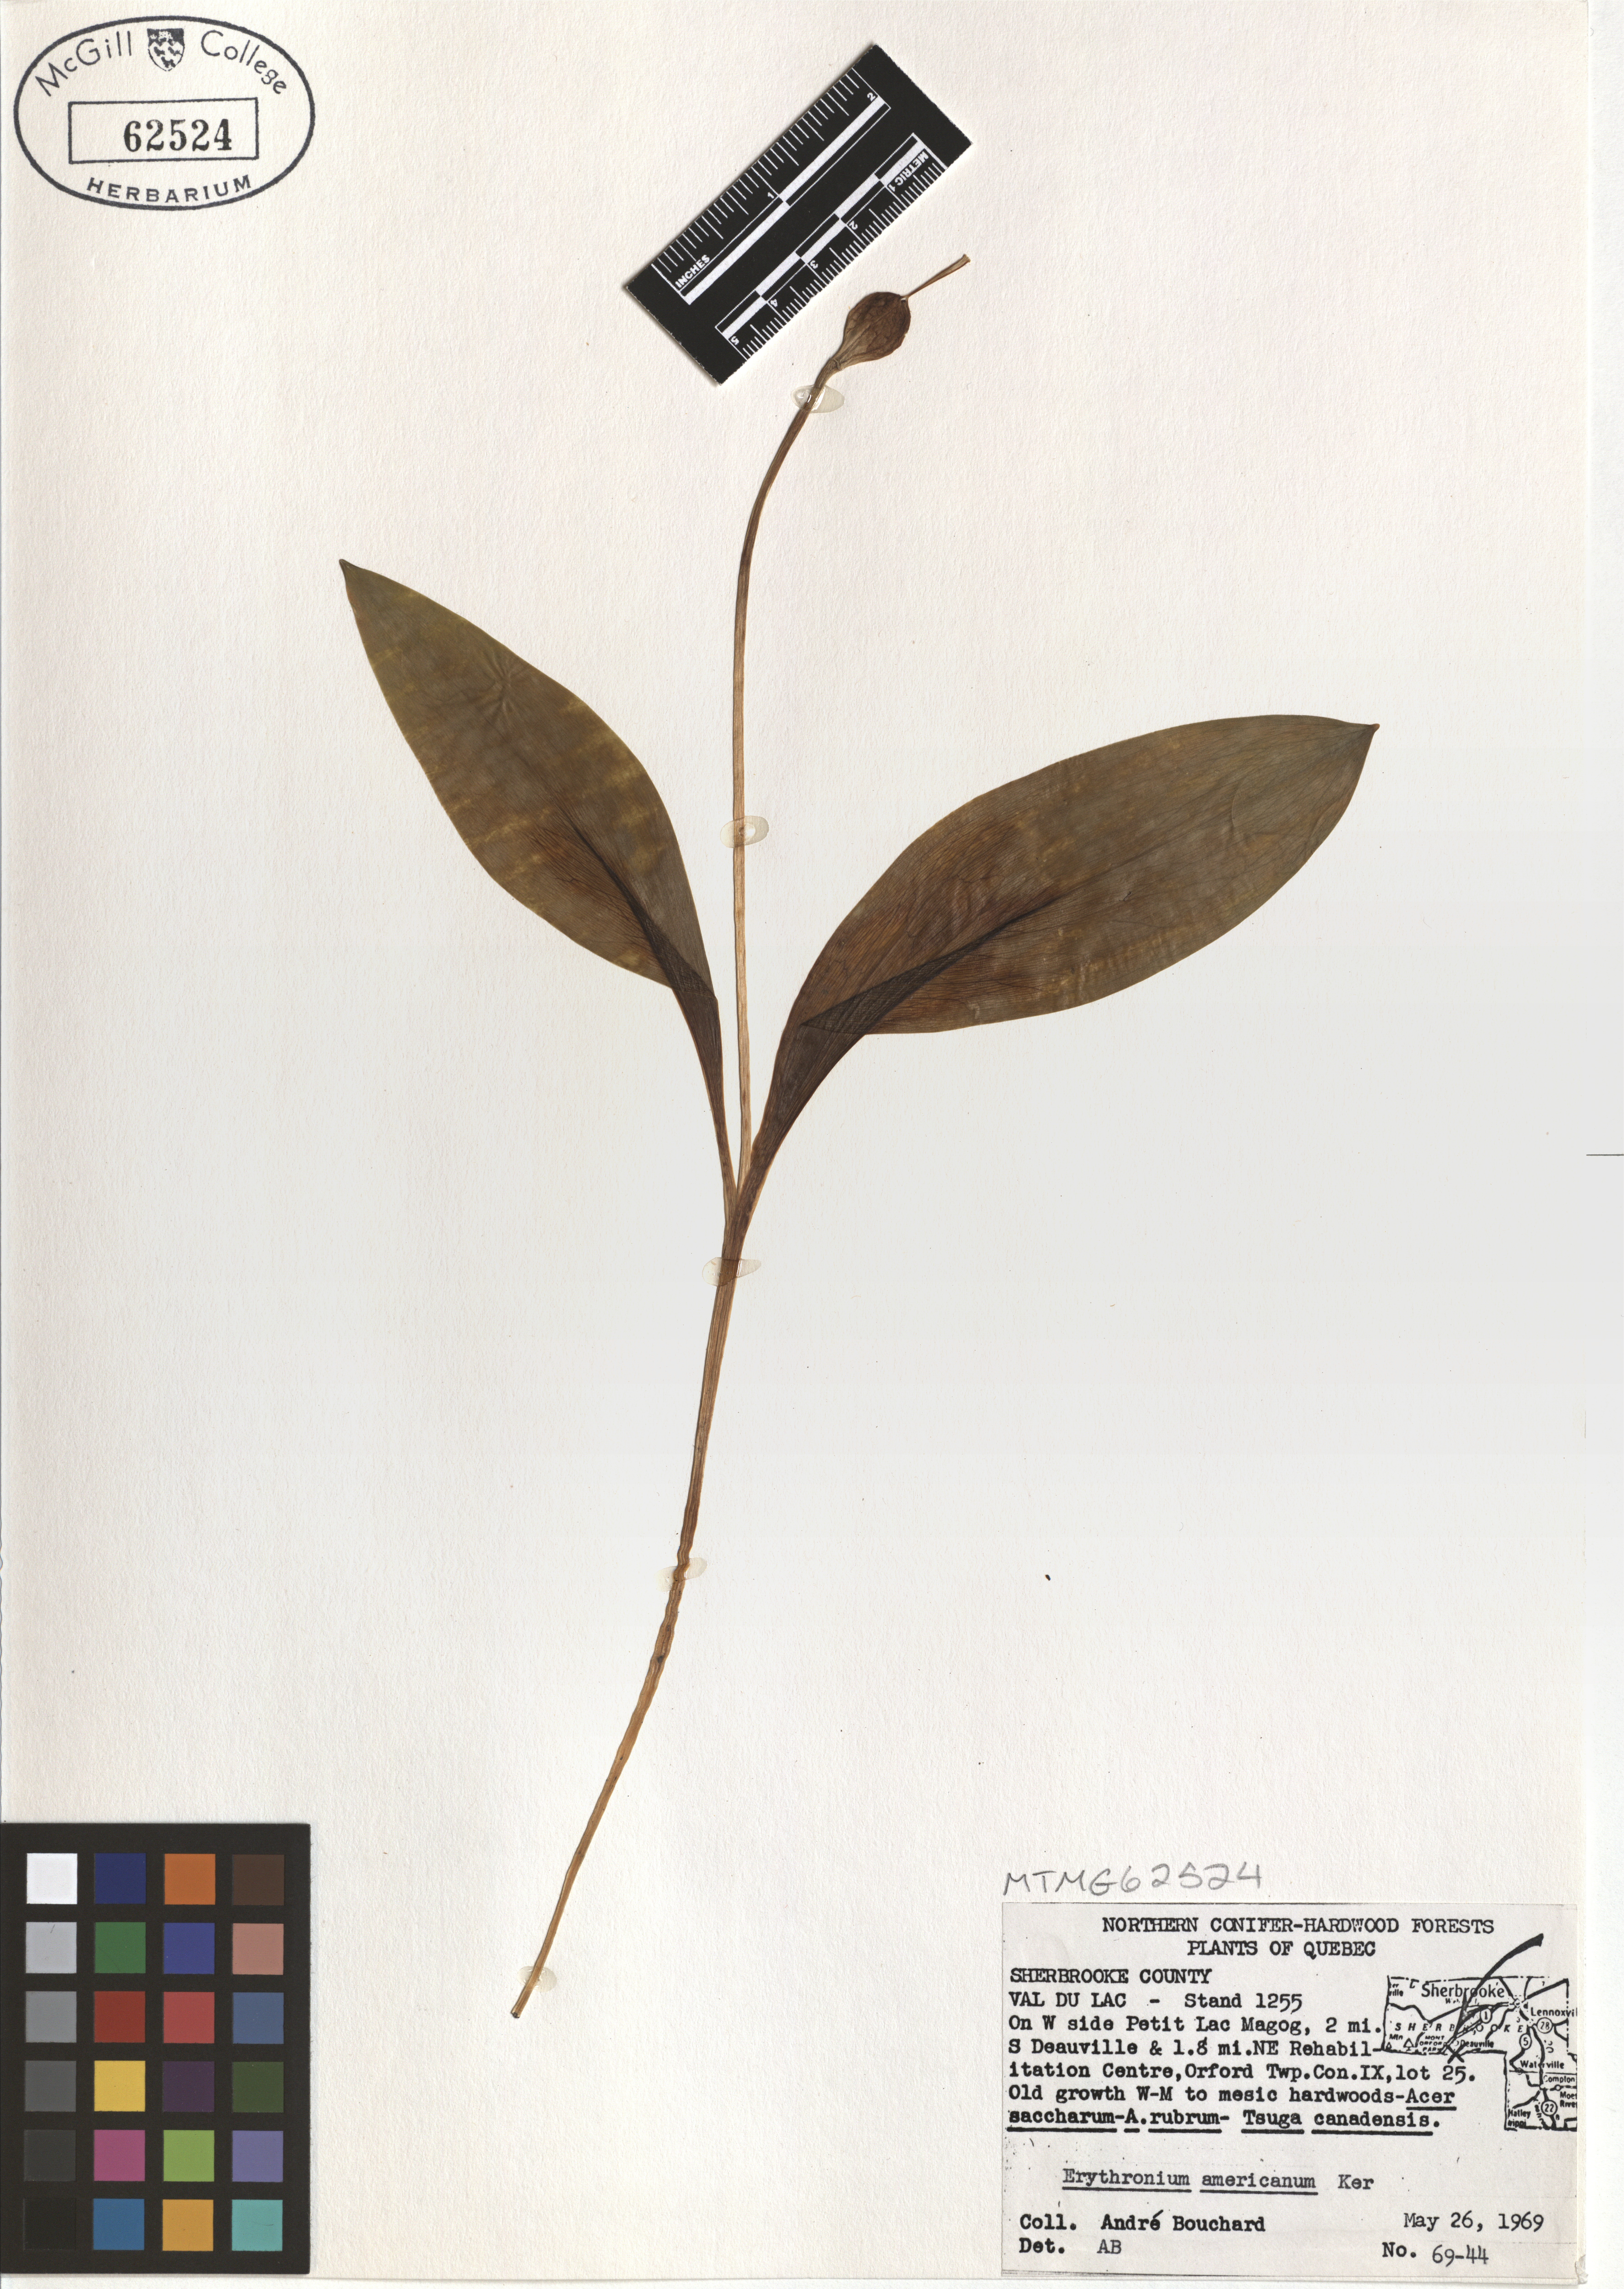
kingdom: Plantae
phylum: Tracheophyta
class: Liliopsida
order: Liliales
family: Liliaceae
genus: Erythronium
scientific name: Erythronium americanum
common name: Yellow adder's-tongue
